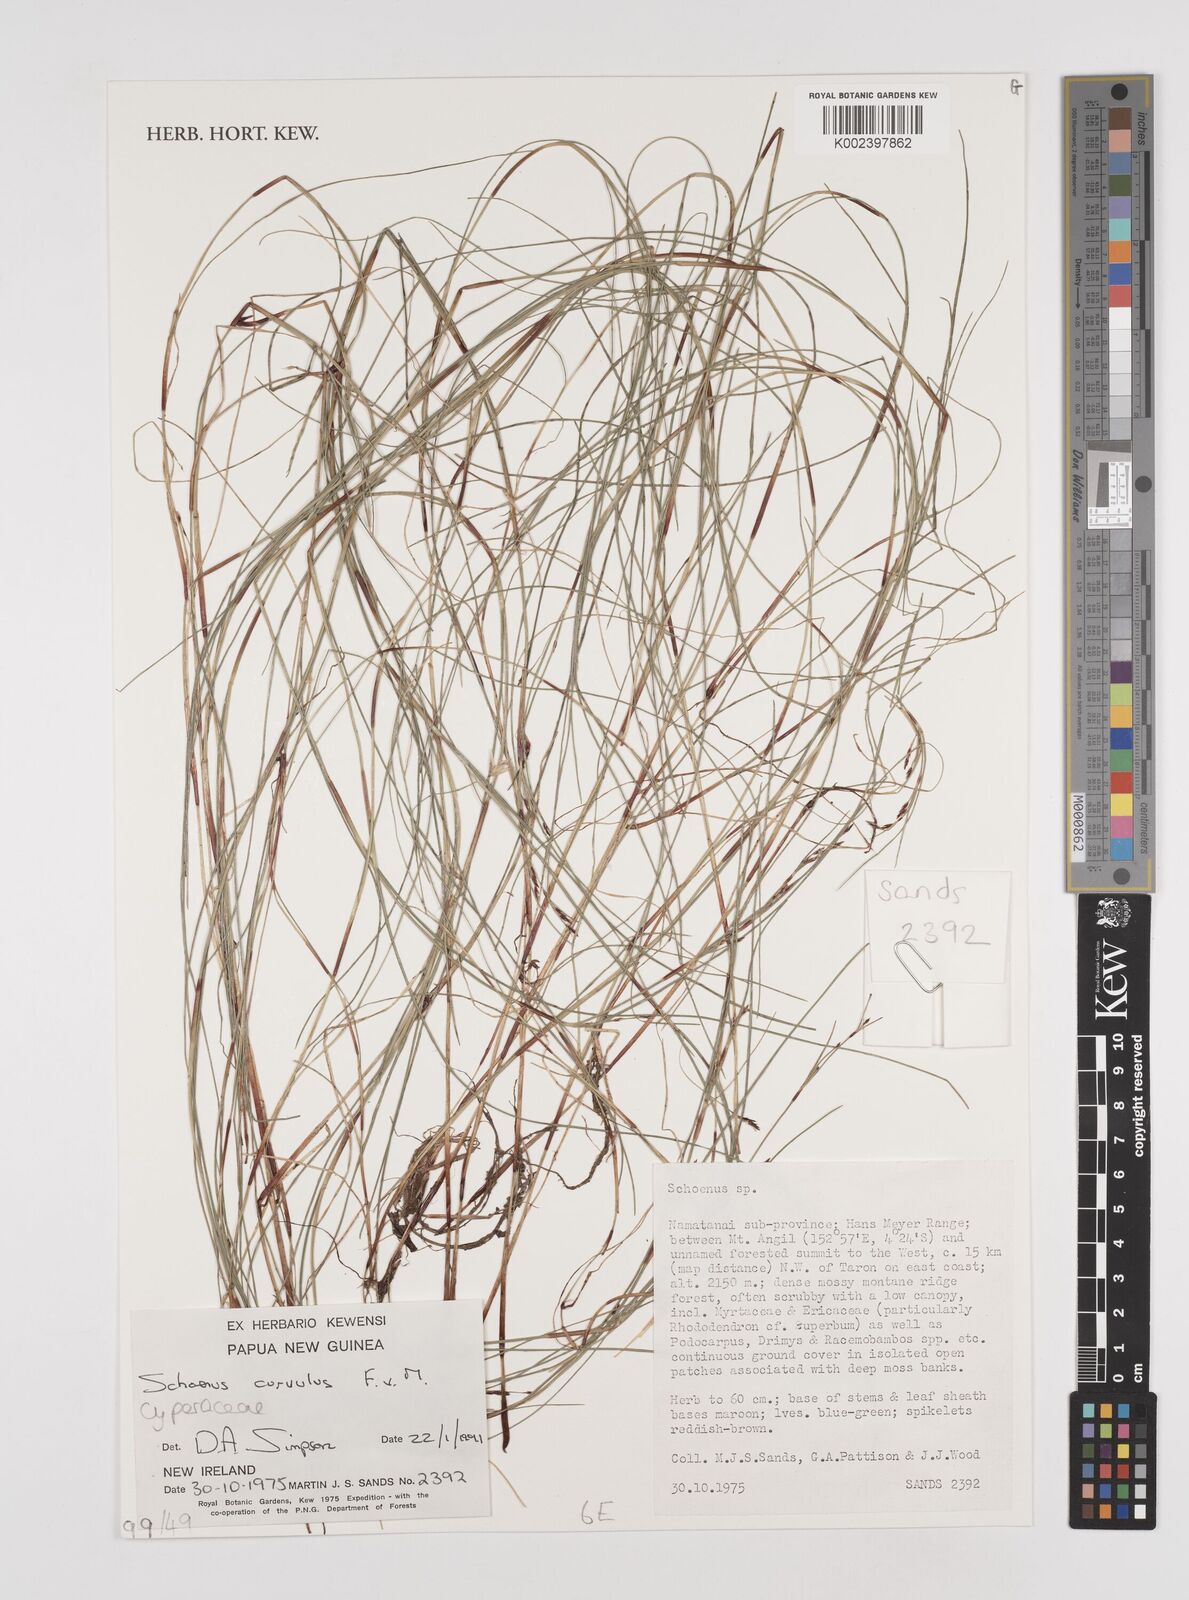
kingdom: Plantae
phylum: Tracheophyta
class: Liliopsida
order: Poales
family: Cyperaceae
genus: Schoenus
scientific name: Schoenus curvulus
